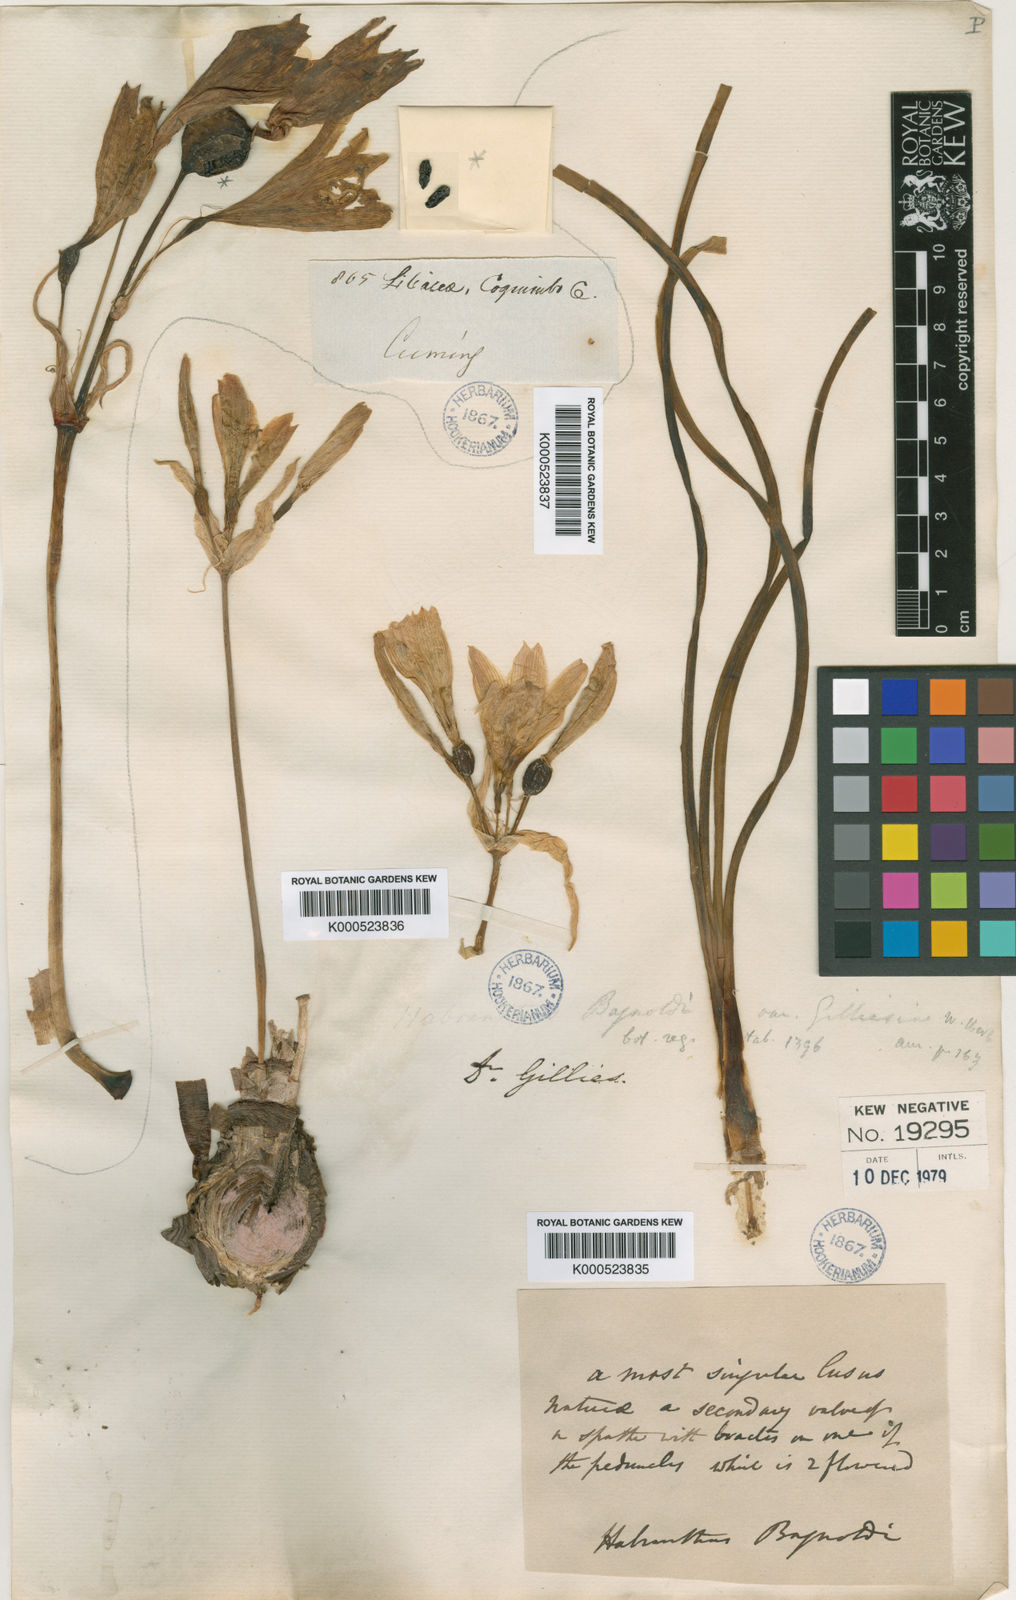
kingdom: Plantae
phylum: Tracheophyta
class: Liliopsida
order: Asparagales
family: Amaryllidaceae
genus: Zephyranthes
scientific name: Zephyranthes bagnoldii
